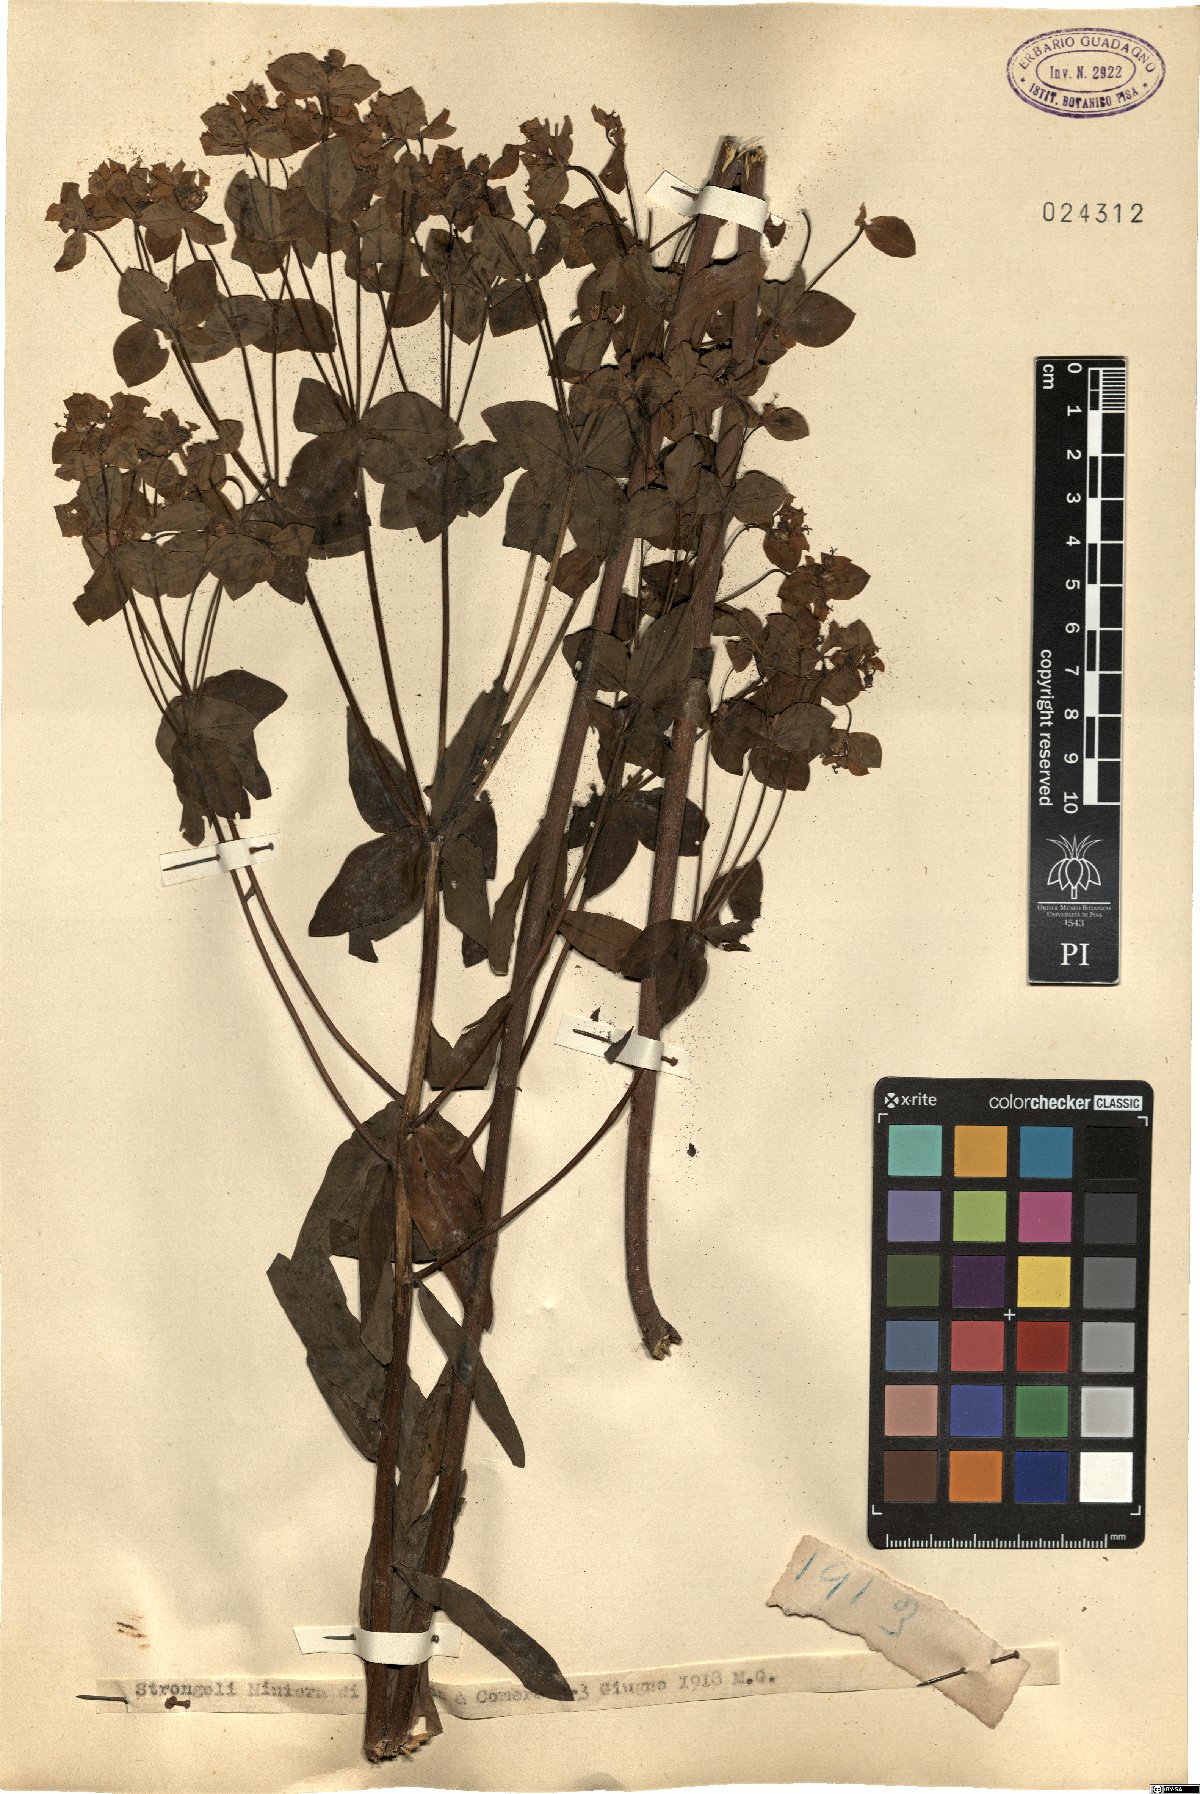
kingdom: Plantae
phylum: Tracheophyta
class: Magnoliopsida
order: Malpighiales
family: Euphorbiaceae
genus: Euphorbia
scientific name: Euphorbia
